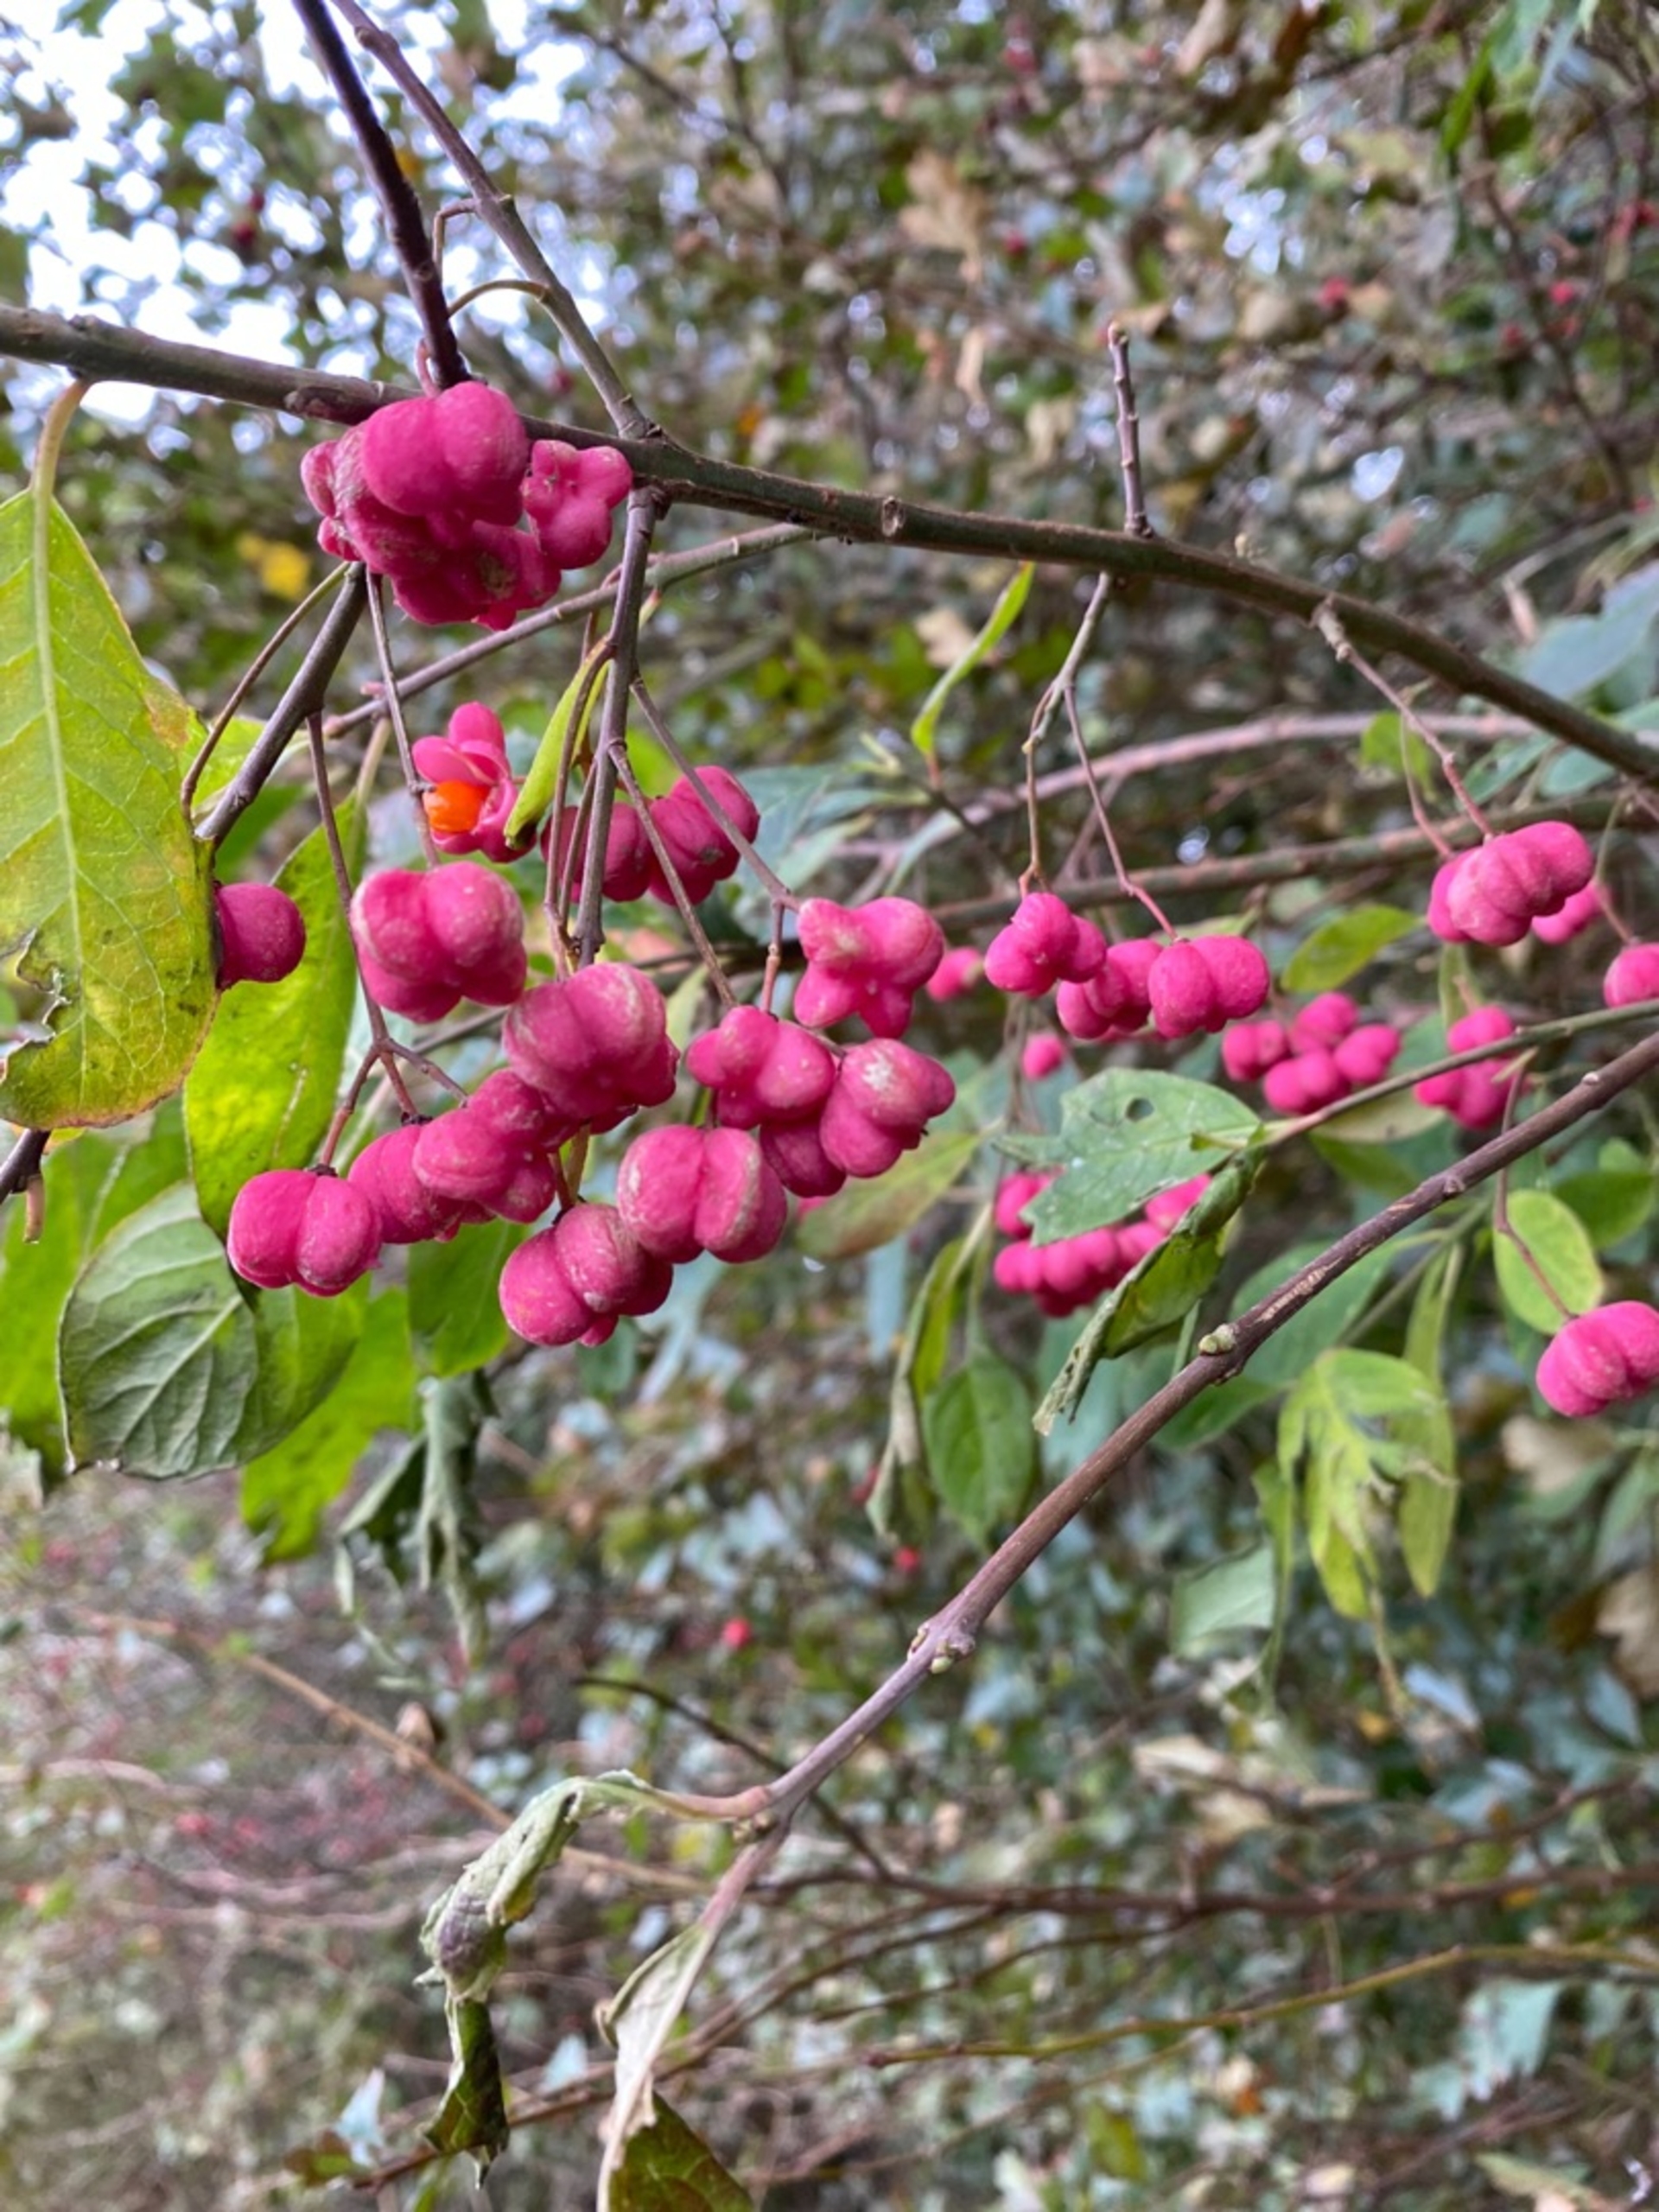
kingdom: Plantae
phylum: Tracheophyta
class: Magnoliopsida
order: Celastrales
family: Celastraceae
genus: Euonymus
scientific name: Euonymus europaeus
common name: Benved
